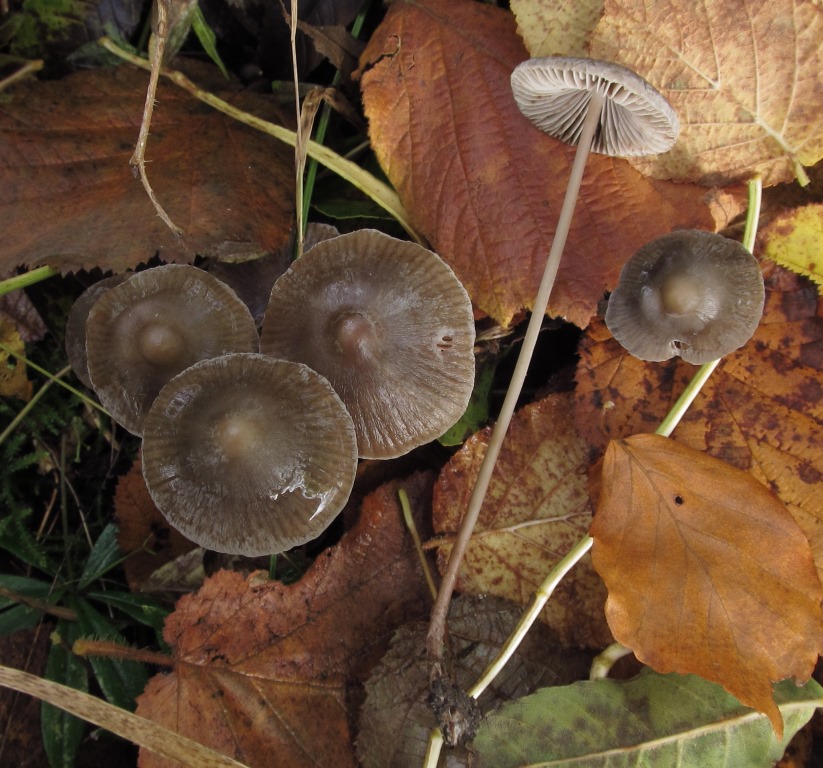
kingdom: Fungi
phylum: Basidiomycota
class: Agaricomycetes
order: Agaricales
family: Mycenaceae
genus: Mycena
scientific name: Mycena polygramma
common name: mangestribet huesvamp
